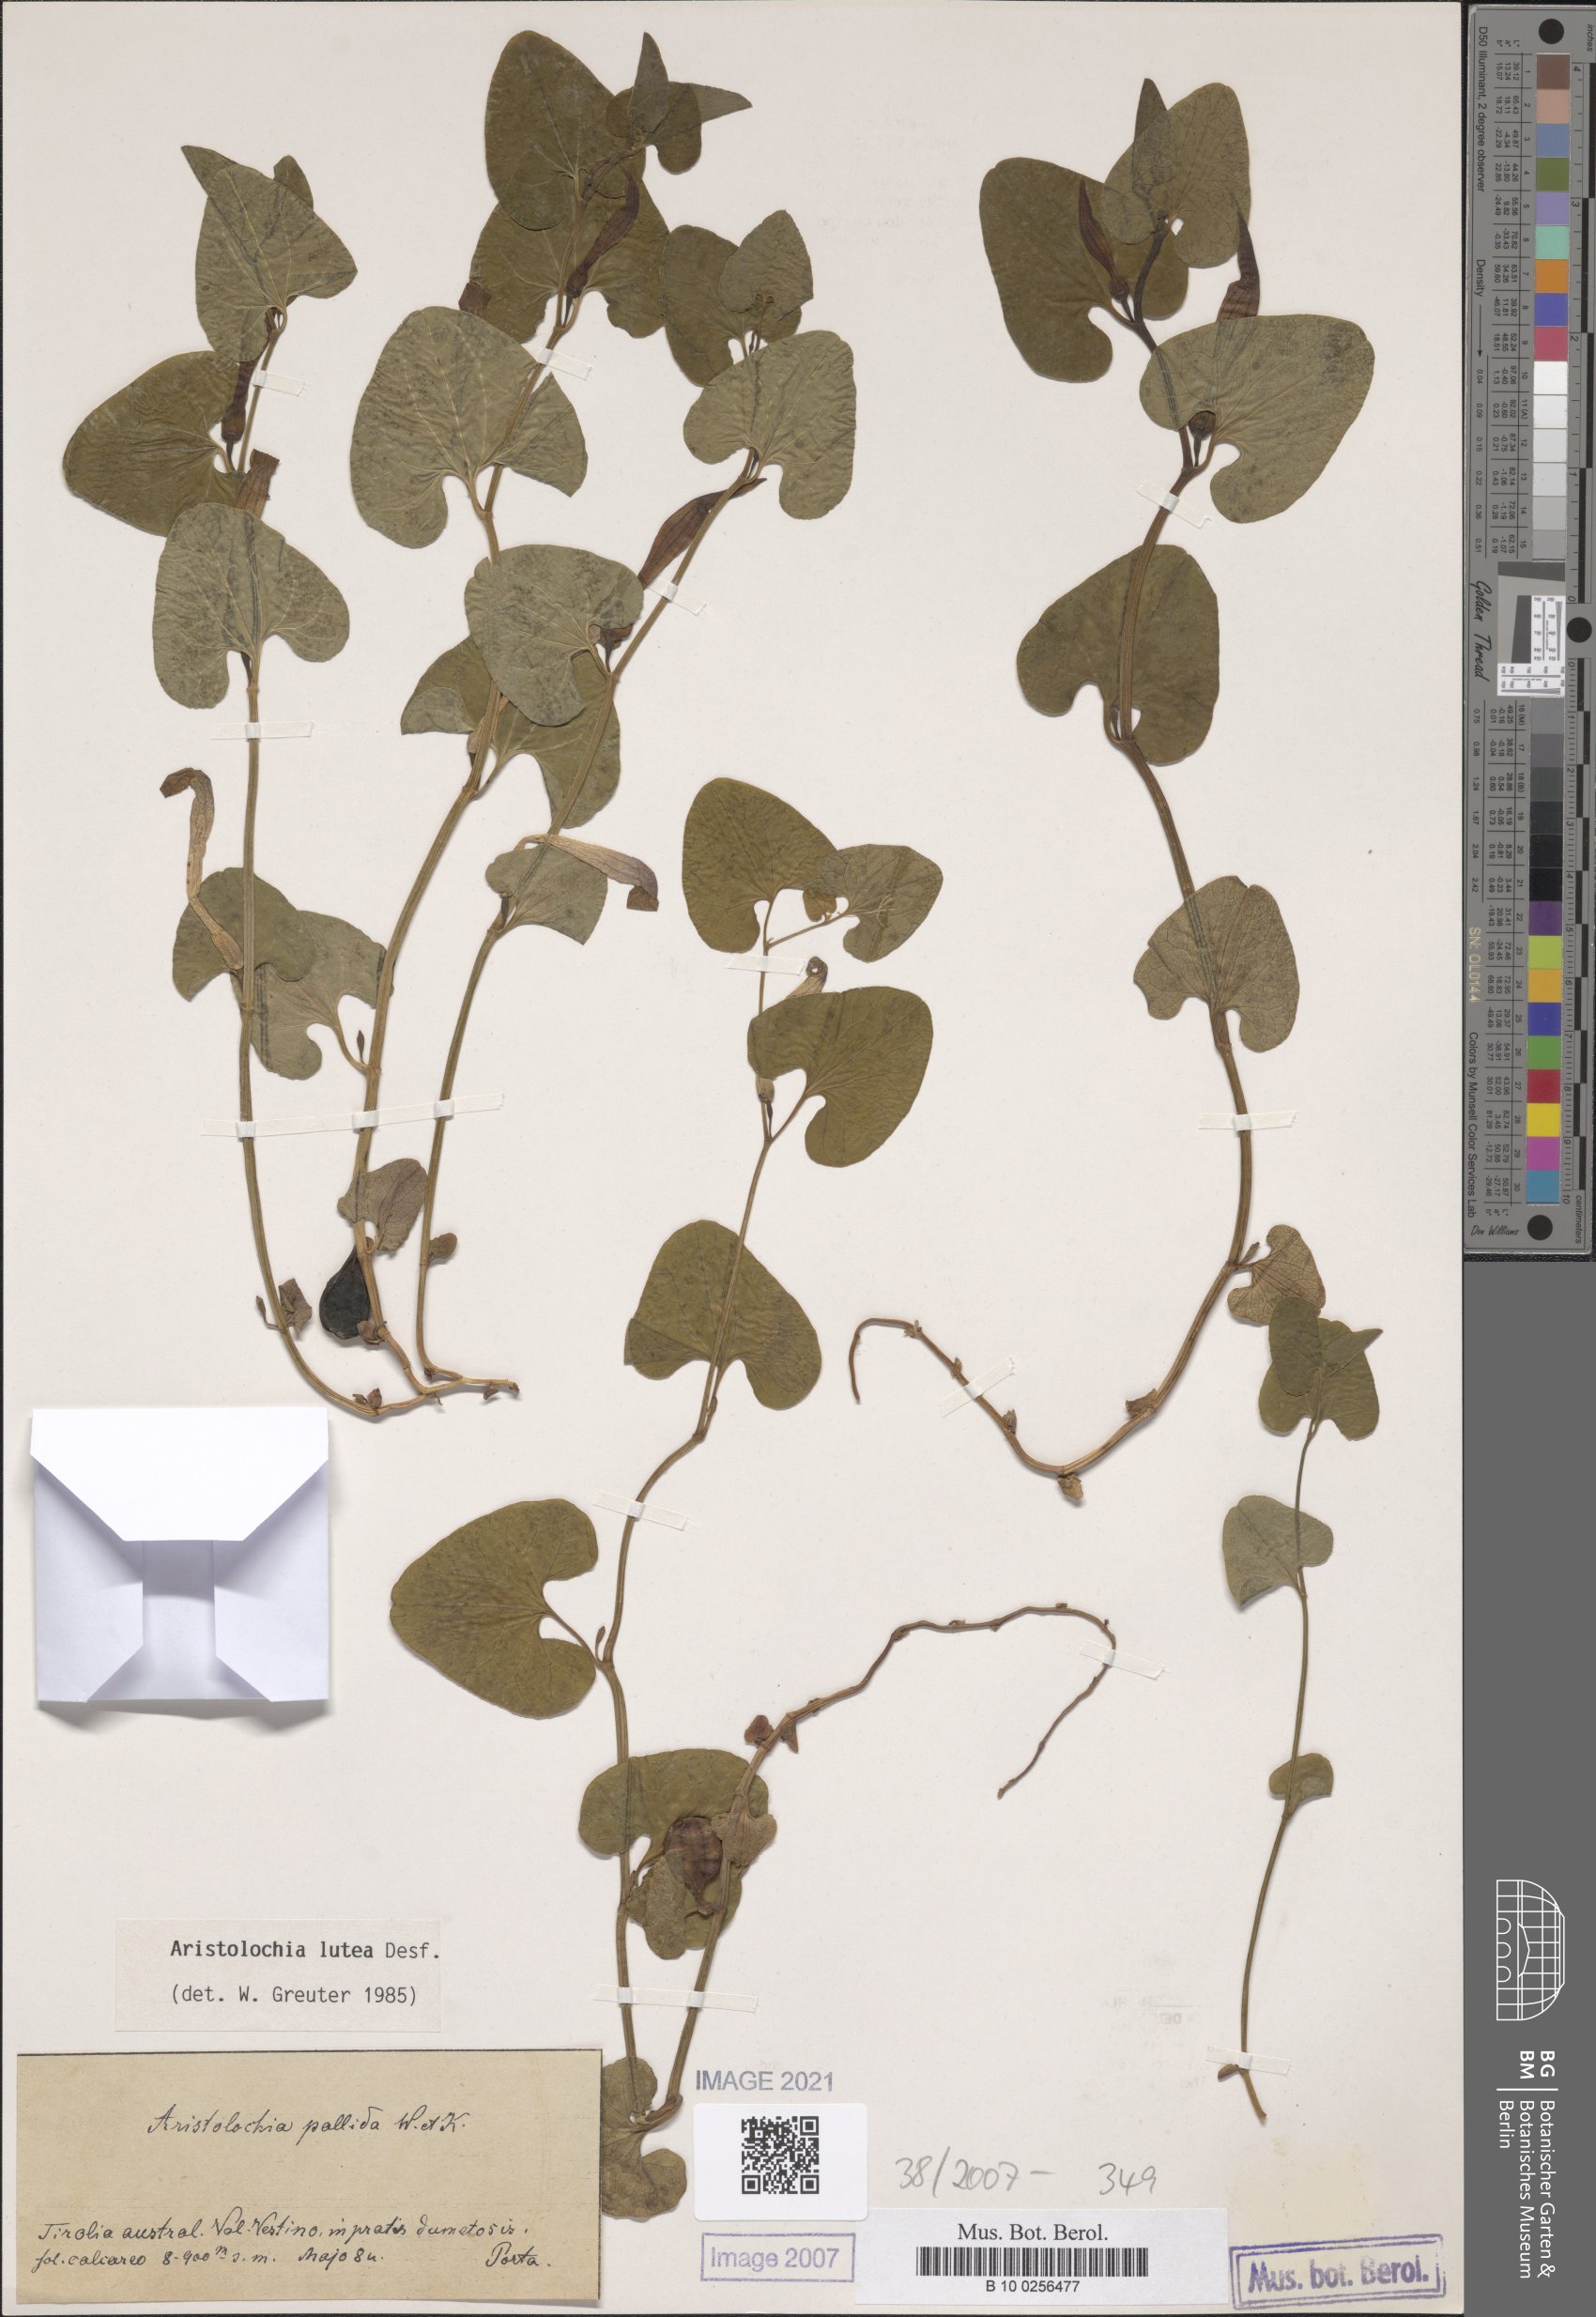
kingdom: Plantae
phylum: Tracheophyta
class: Magnoliopsida
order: Piperales
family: Aristolochiaceae
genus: Aristolochia
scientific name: Aristolochia lutea
